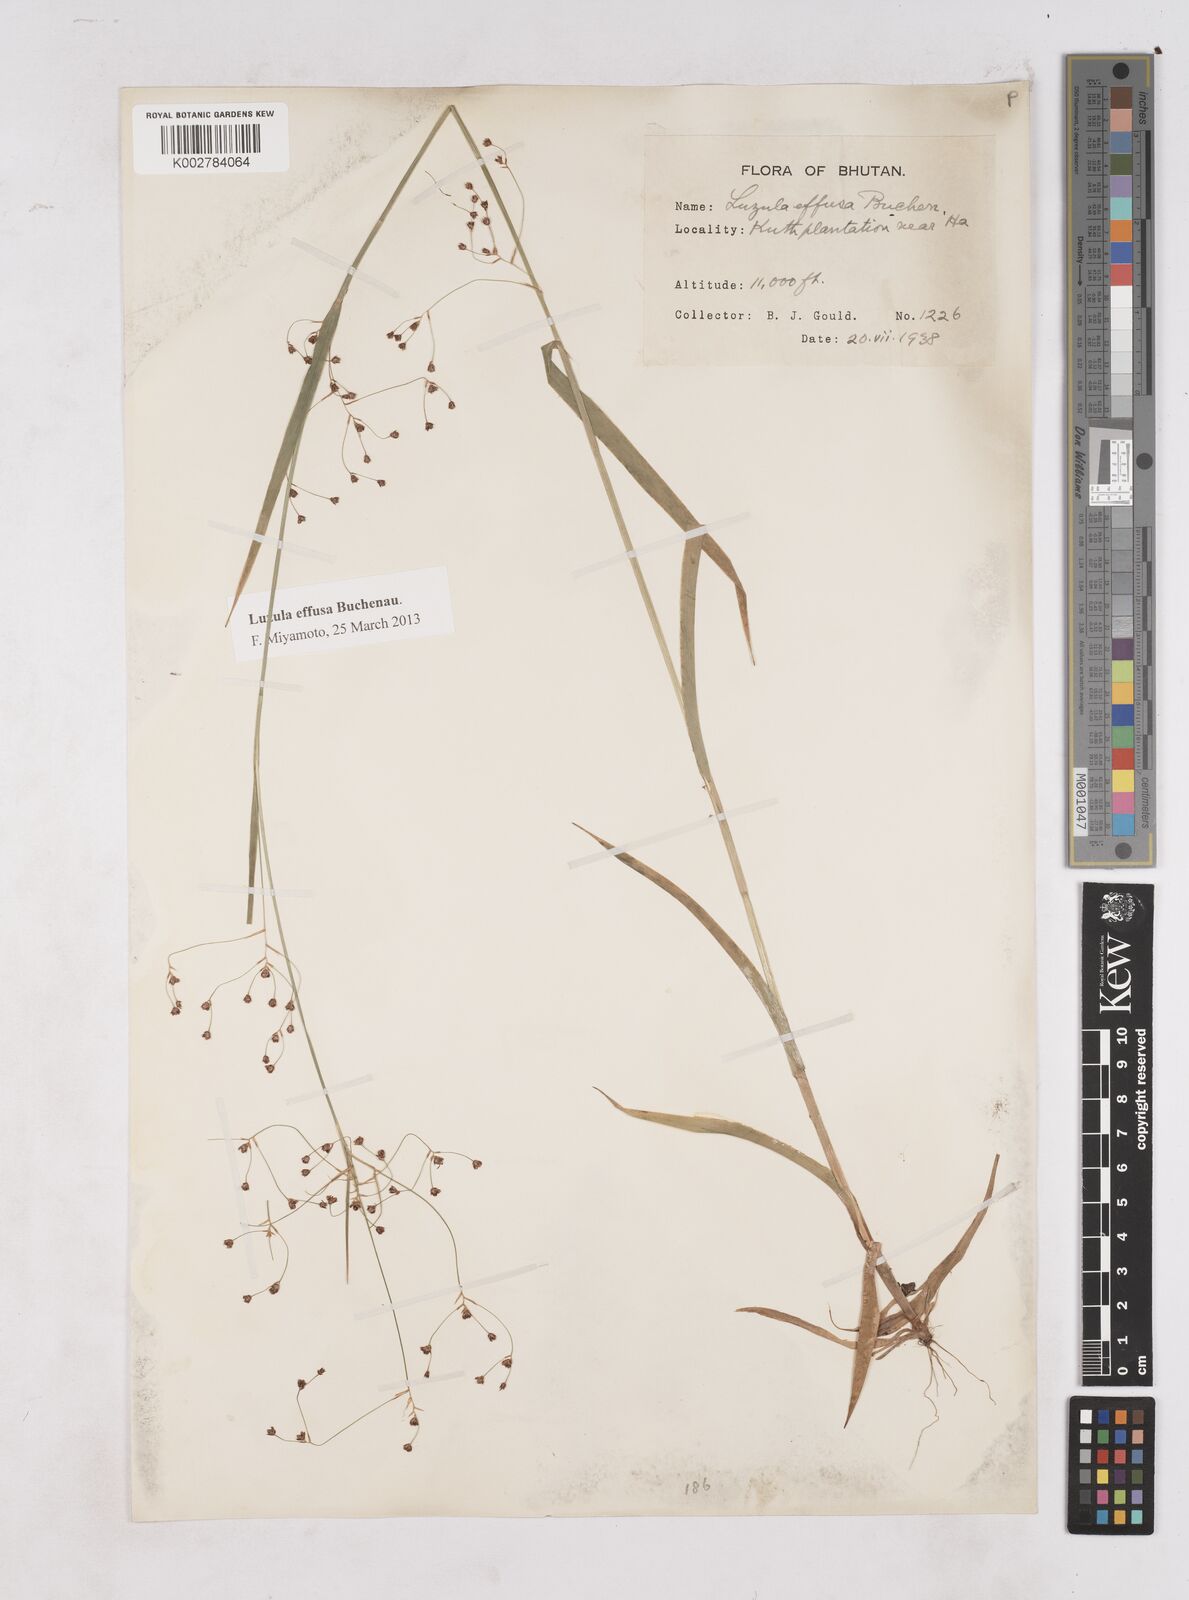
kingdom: Plantae
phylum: Tracheophyta
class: Liliopsida
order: Poales
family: Juncaceae
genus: Luzula
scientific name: Luzula effusa
